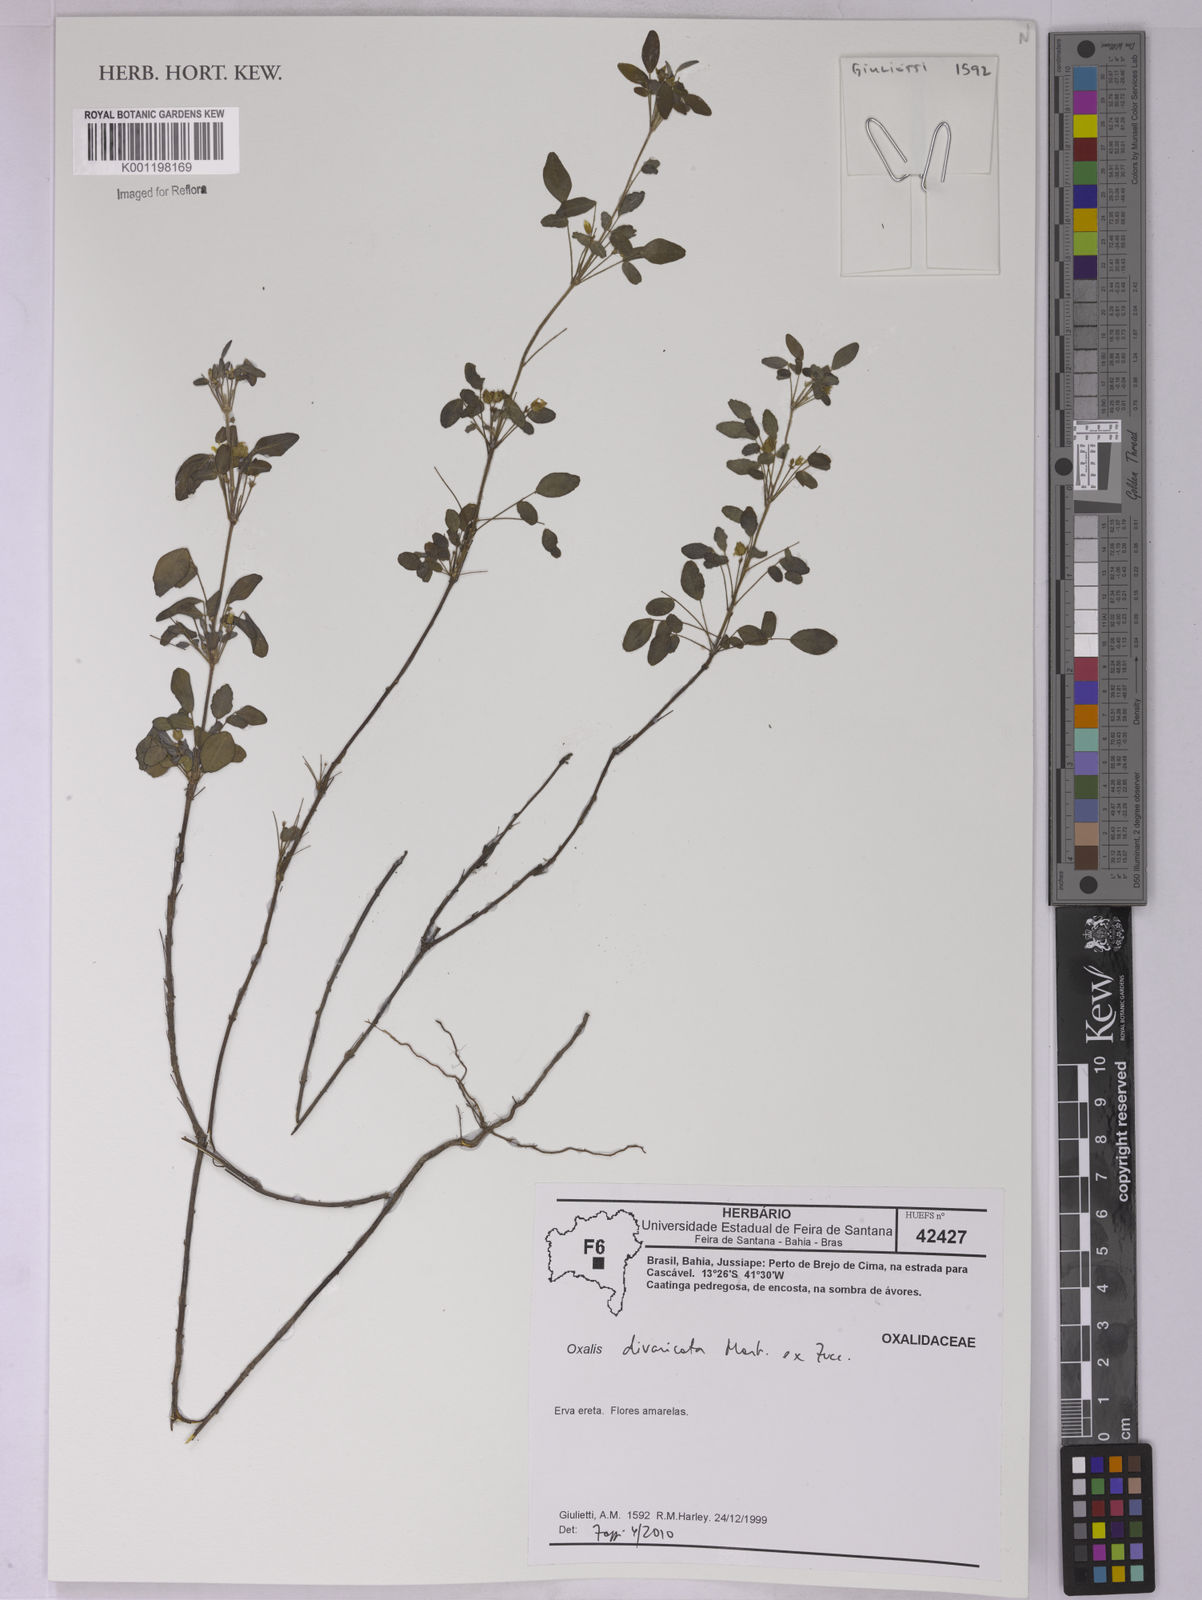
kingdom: Plantae
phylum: Tracheophyta
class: Magnoliopsida
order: Oxalidales
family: Oxalidaceae
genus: Oxalis
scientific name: Oxalis divaricata
